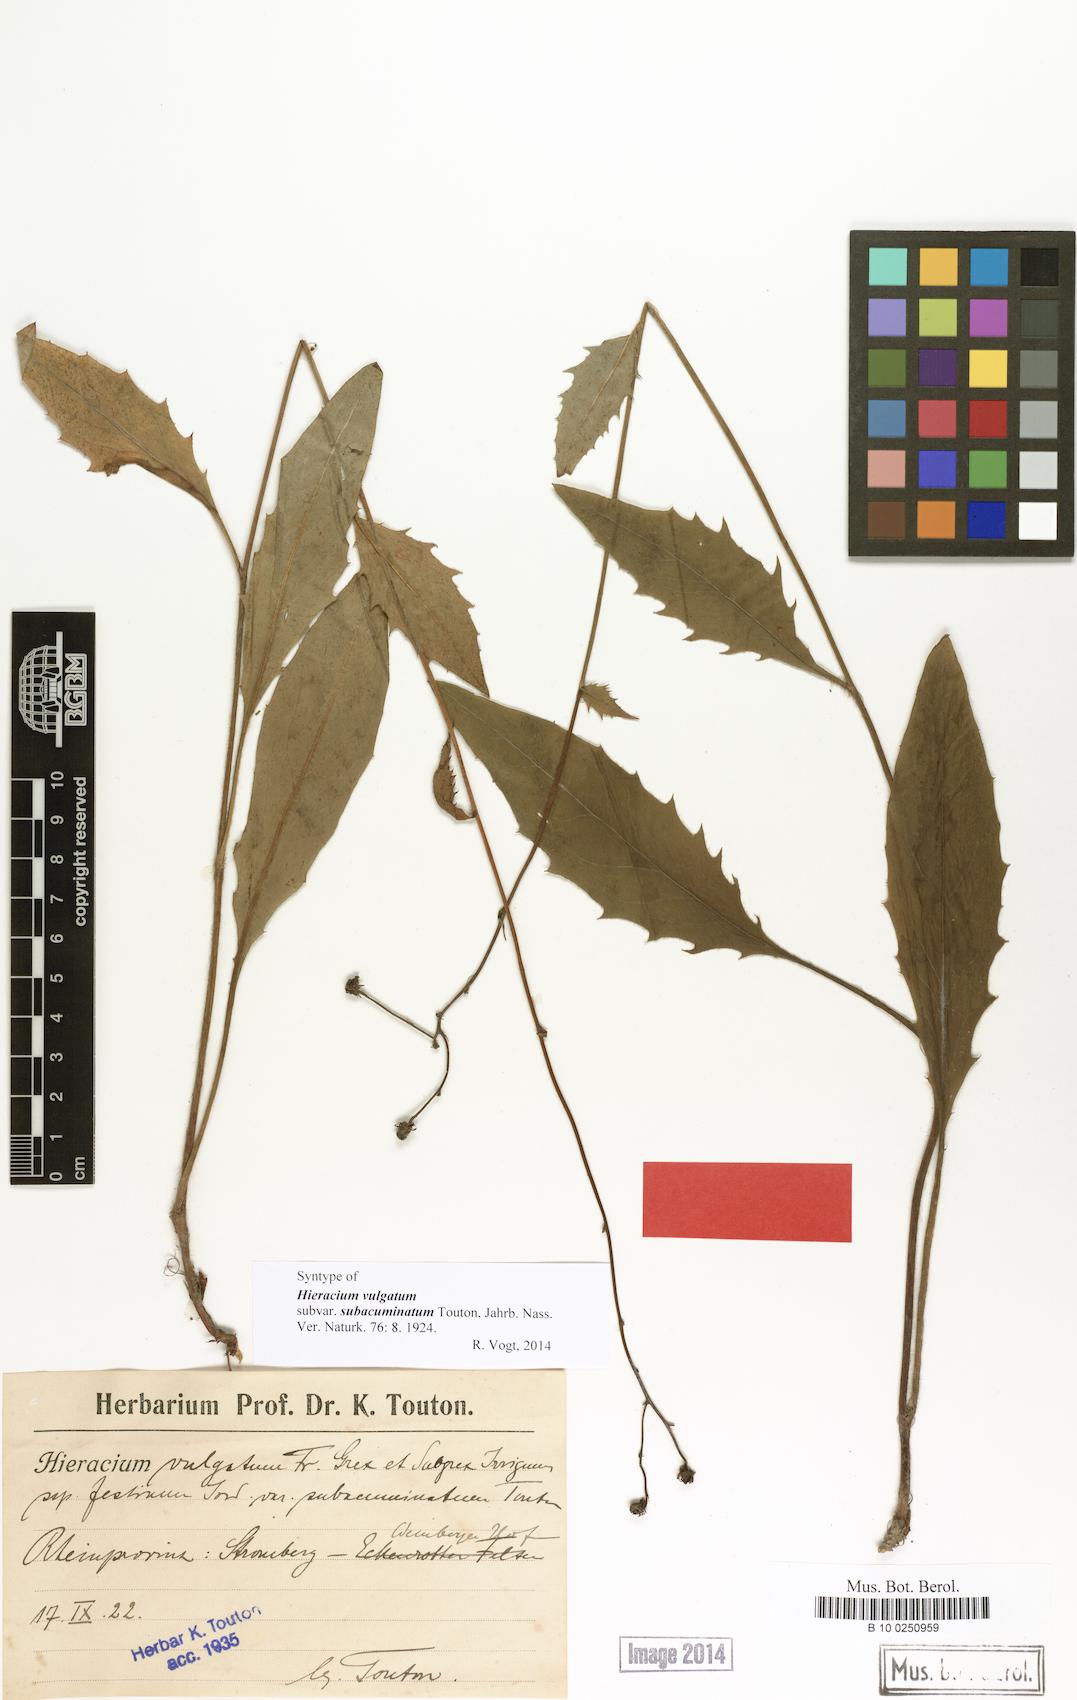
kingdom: Plantae
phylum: Tracheophyta
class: Magnoliopsida
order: Asterales
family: Asteraceae
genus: Hieracium
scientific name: Hieracium lachenalii
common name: Common hawkweed
